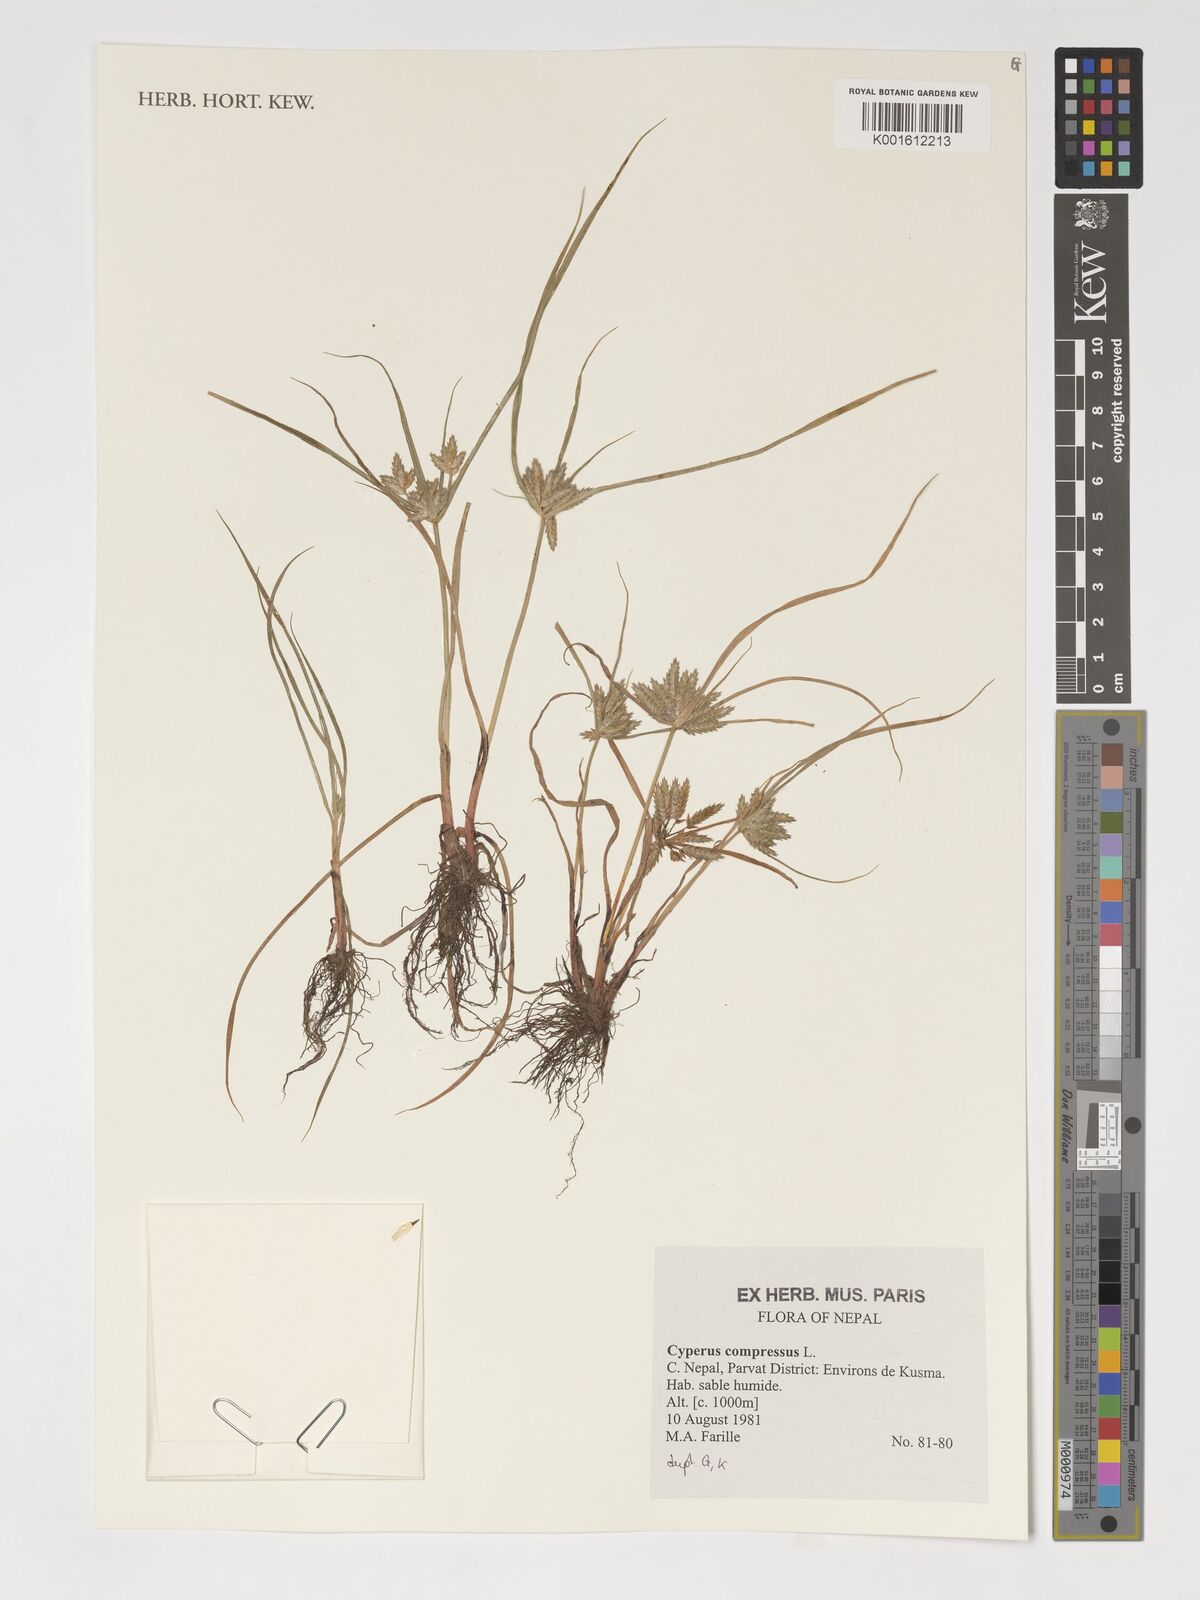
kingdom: Plantae
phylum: Tracheophyta
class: Liliopsida
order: Poales
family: Cyperaceae
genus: Cyperus
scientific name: Cyperus compressus
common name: Poorland flatsedge
